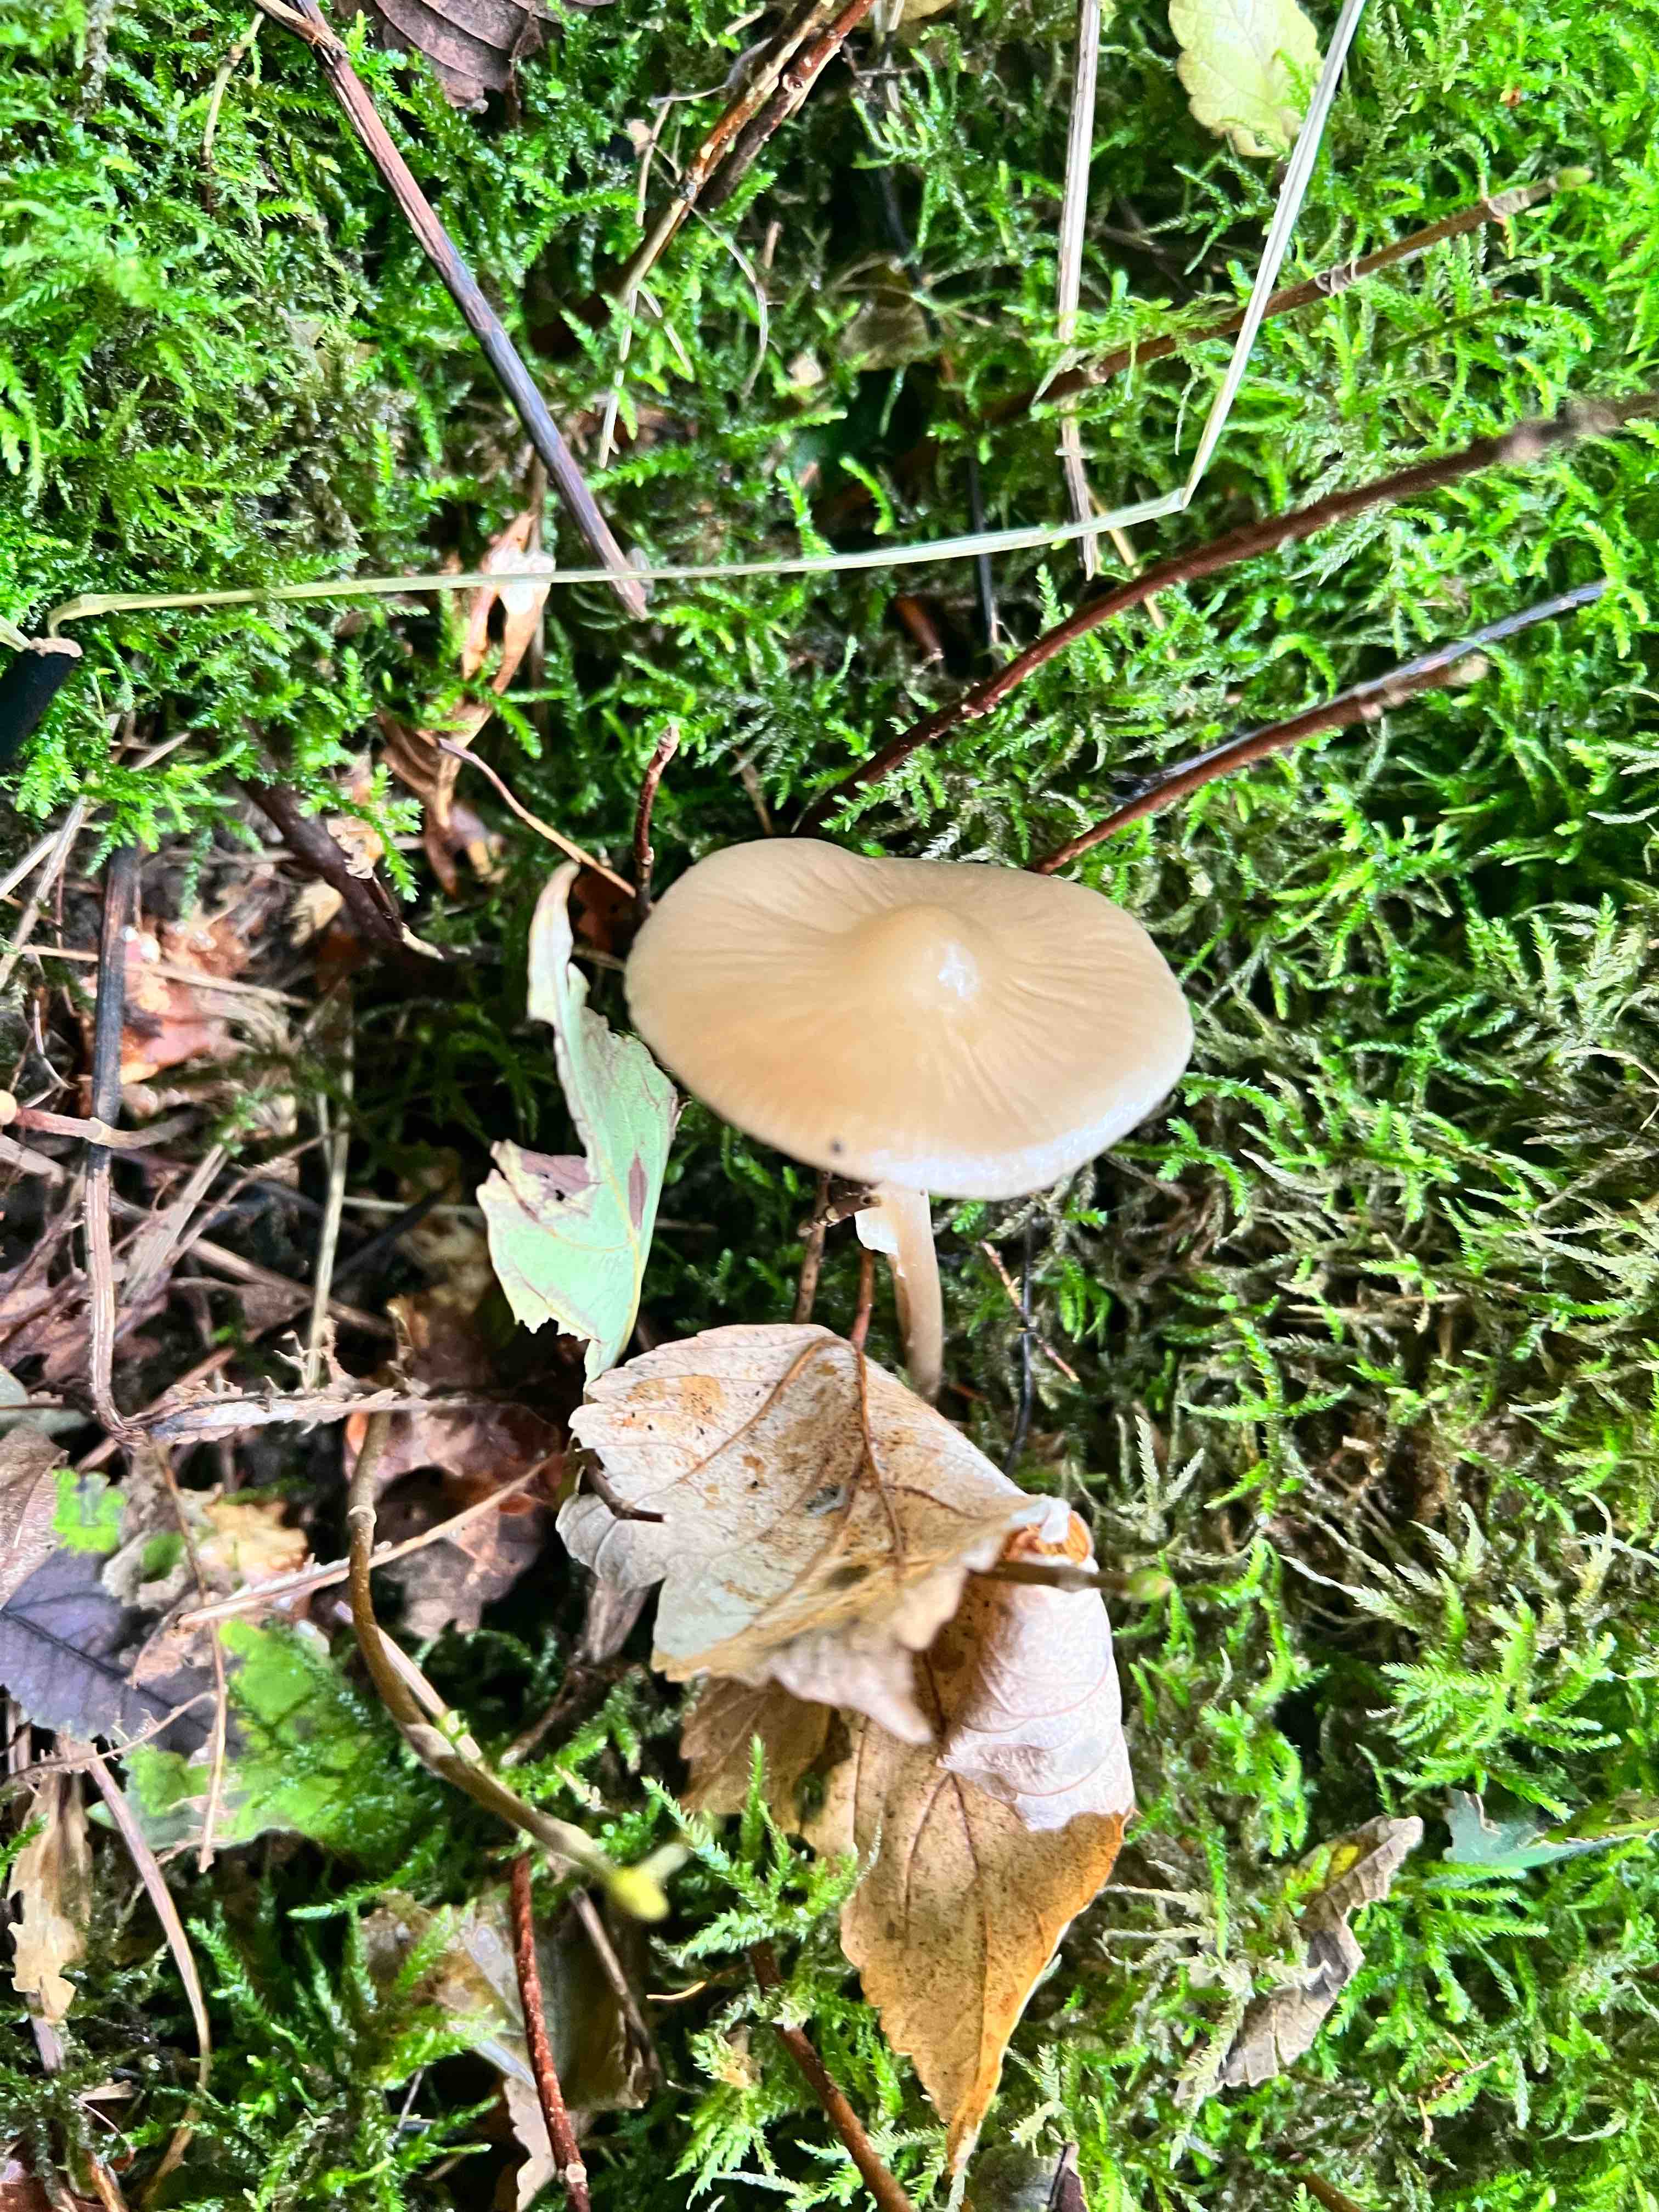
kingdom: Fungi
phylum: Basidiomycota
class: Agaricomycetes
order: Agaricales
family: Physalacriaceae
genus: Hymenopellis
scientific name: Hymenopellis radicata
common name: almindelig pælerodshat
